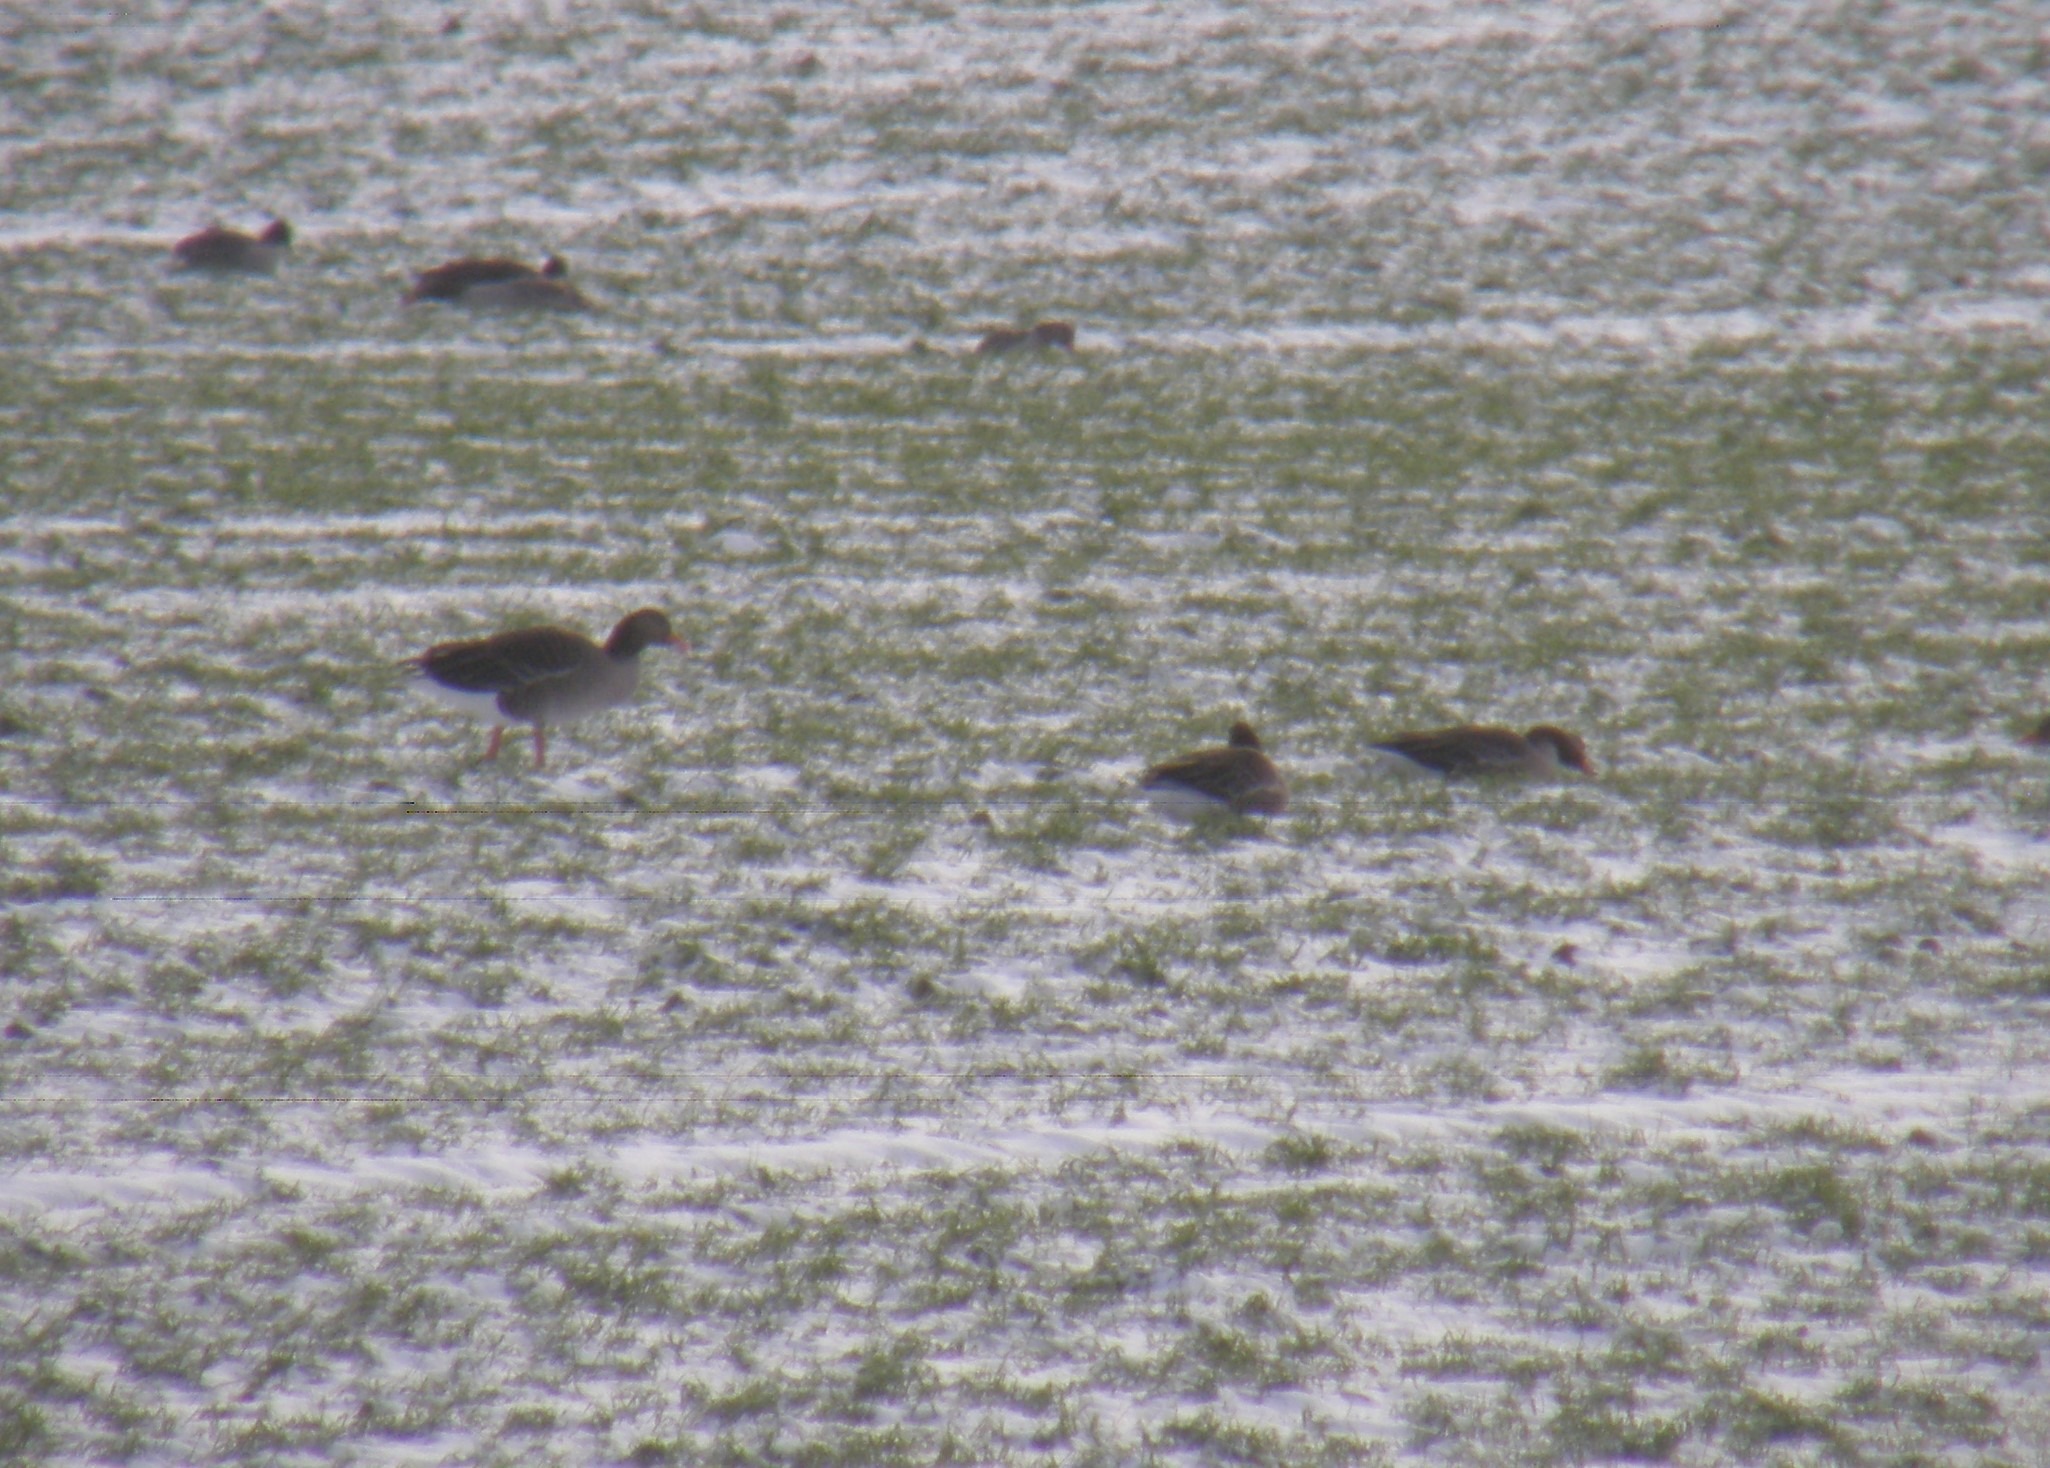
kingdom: Animalia
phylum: Chordata
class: Aves
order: Anseriformes
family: Anatidae
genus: Anser
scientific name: Anser anser
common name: Grågås
